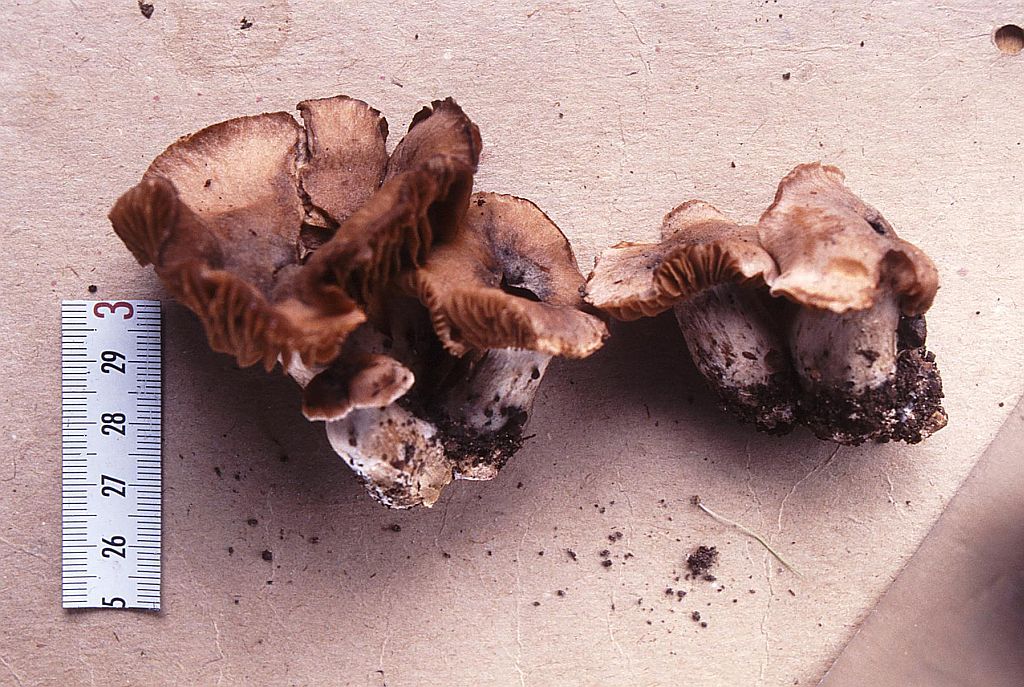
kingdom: Fungi
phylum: Basidiomycota
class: Agaricomycetes
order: Agaricales
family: Cortinariaceae
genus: Cortinarius
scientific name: Cortinarius nefastus
